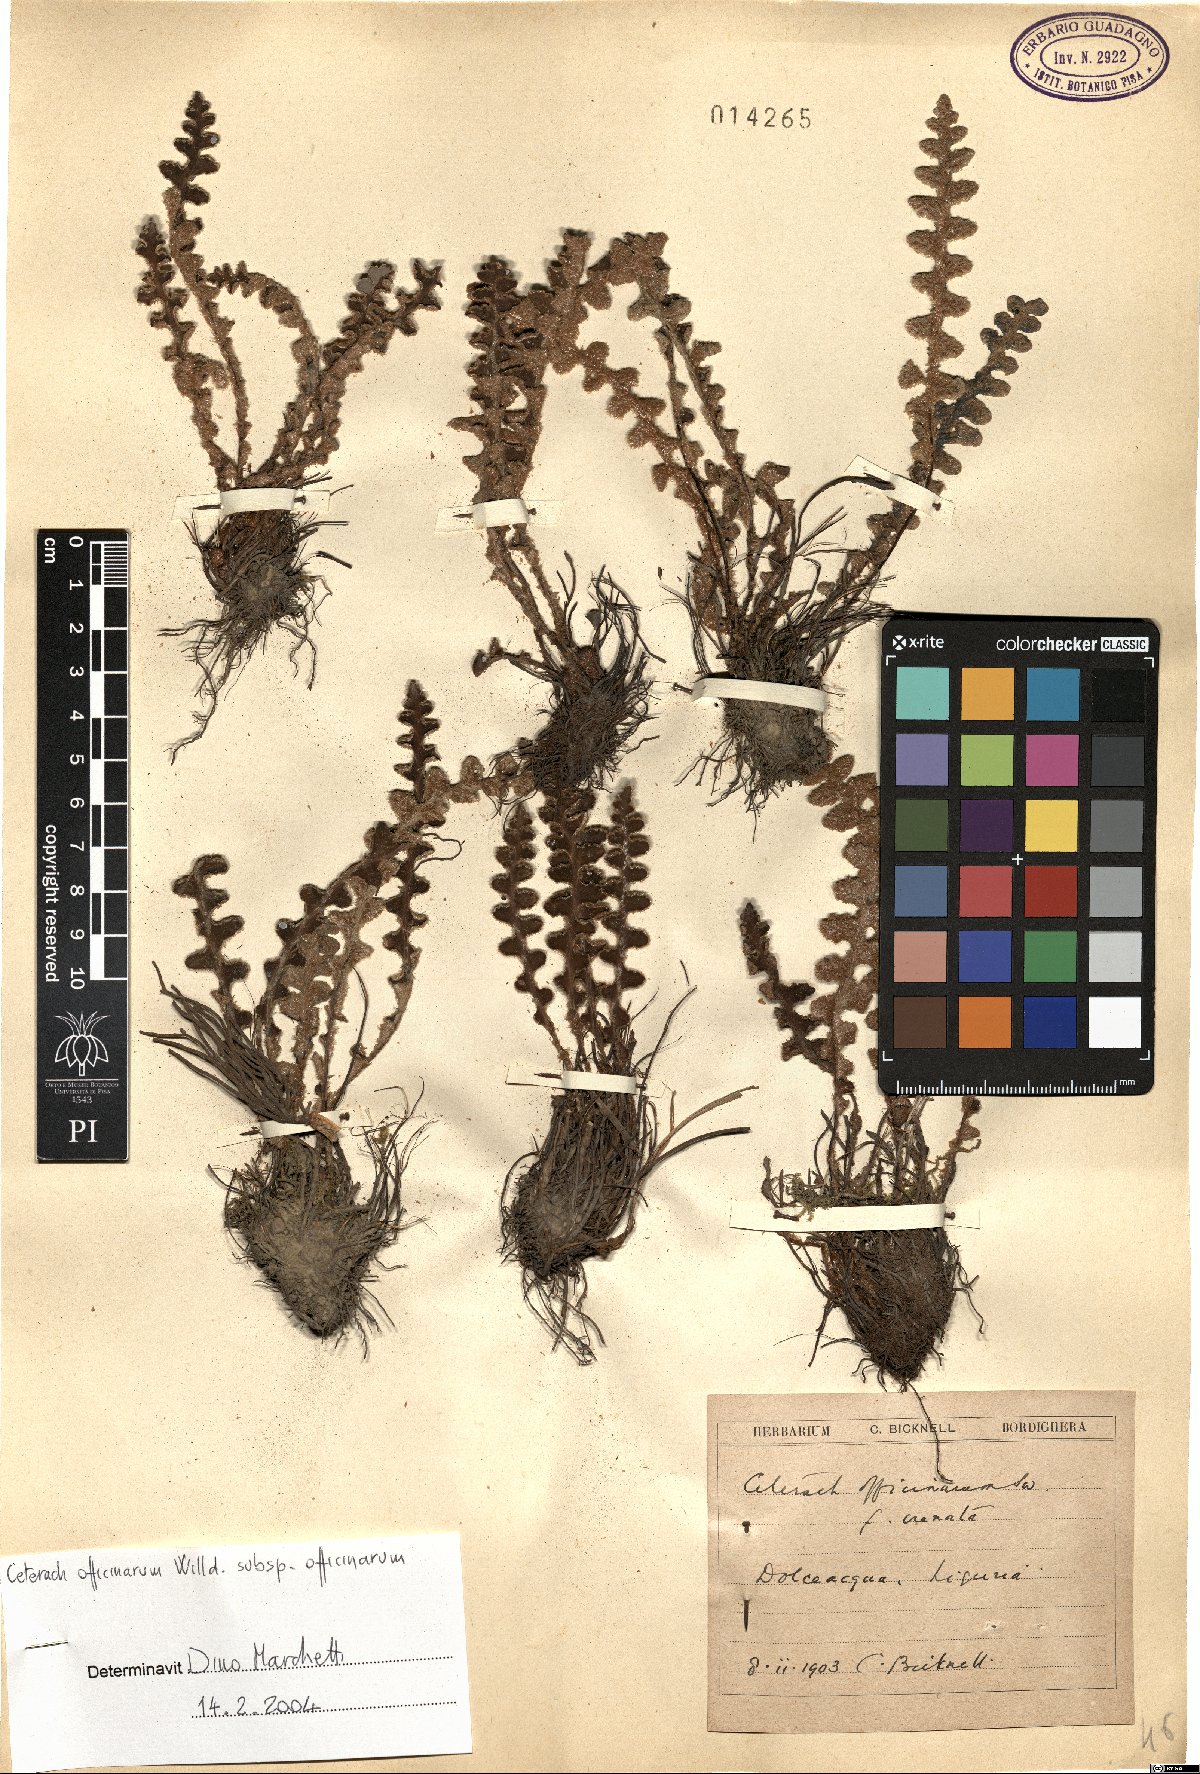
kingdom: Plantae
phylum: Tracheophyta
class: Polypodiopsida
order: Polypodiales
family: Aspleniaceae
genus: Asplenium
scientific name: Asplenium ceterach
